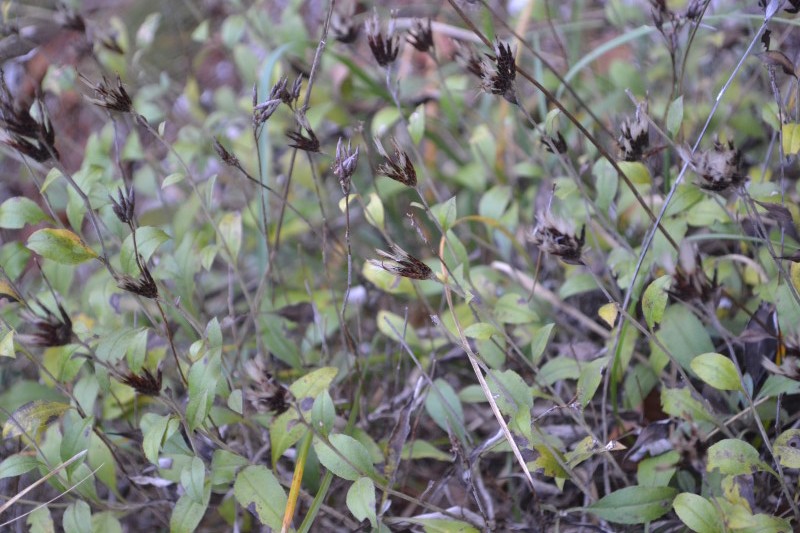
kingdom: Plantae
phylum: Tracheophyta
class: Magnoliopsida
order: Asterales
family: Asteraceae
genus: Staehelina
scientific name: Staehelina uniflosculosa
